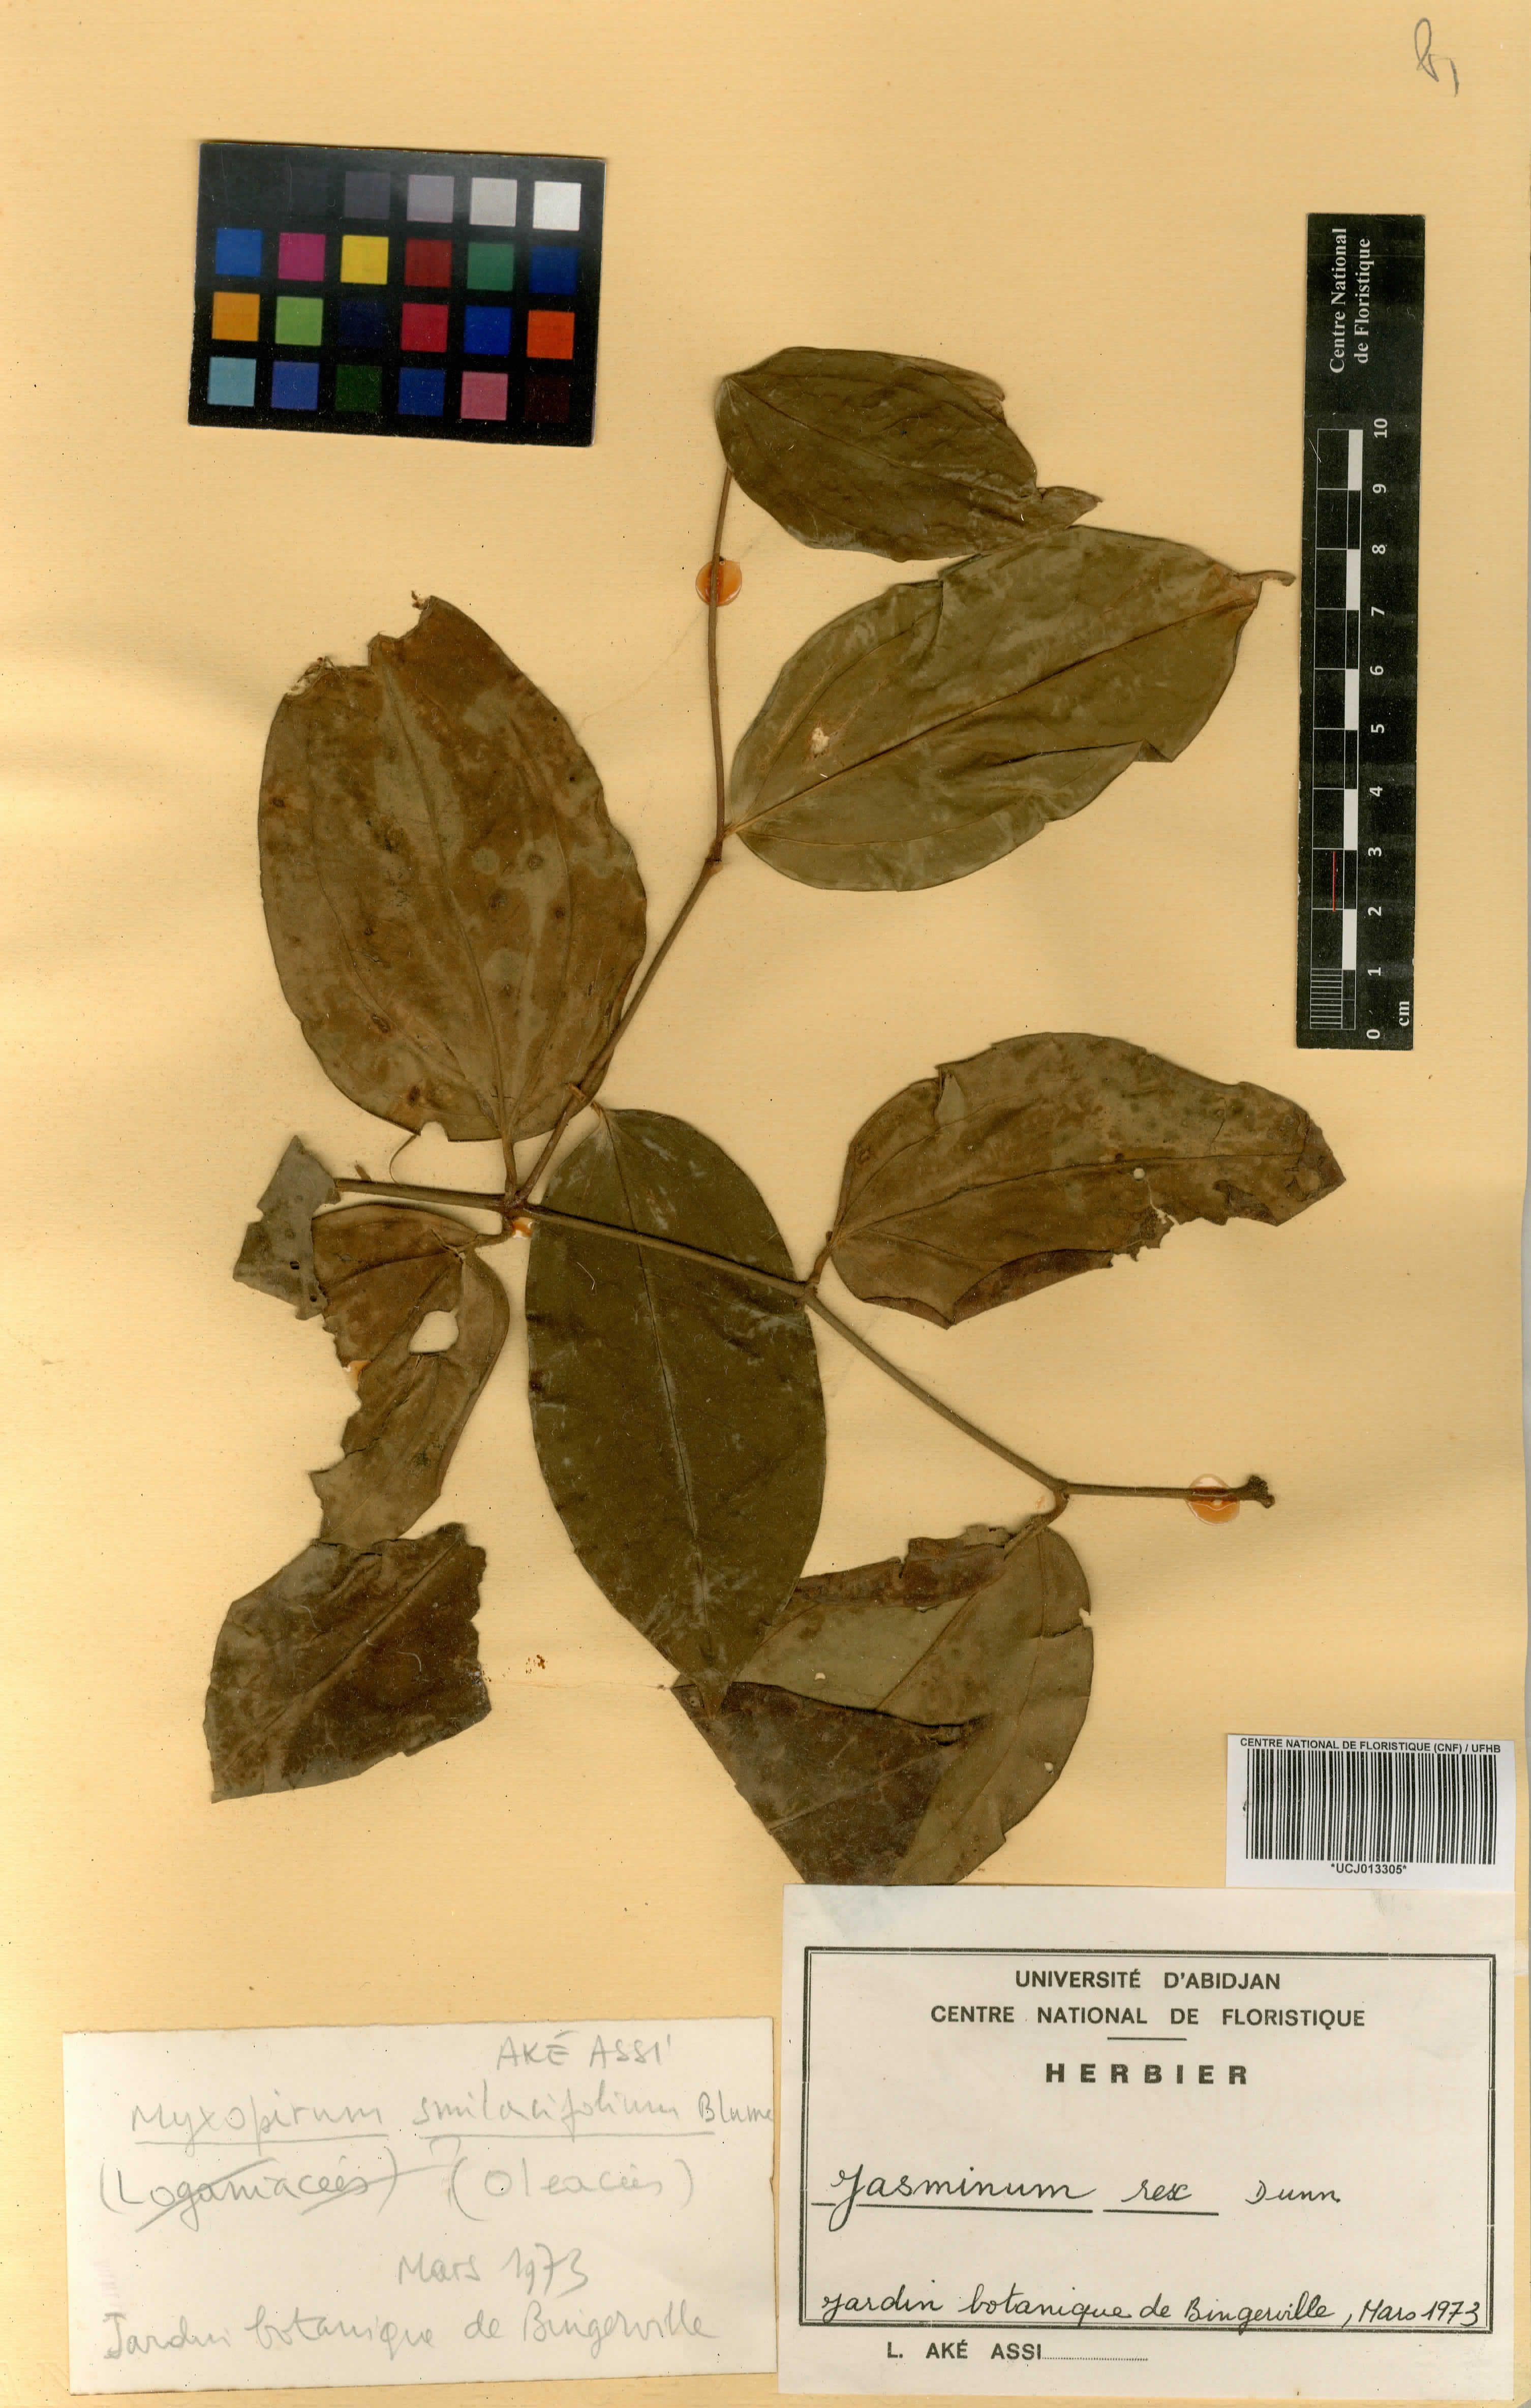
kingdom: Plantae
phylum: Tracheophyta
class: Magnoliopsida
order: Lamiales
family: Oleaceae
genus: Jasminum
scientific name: Jasminum nobile
